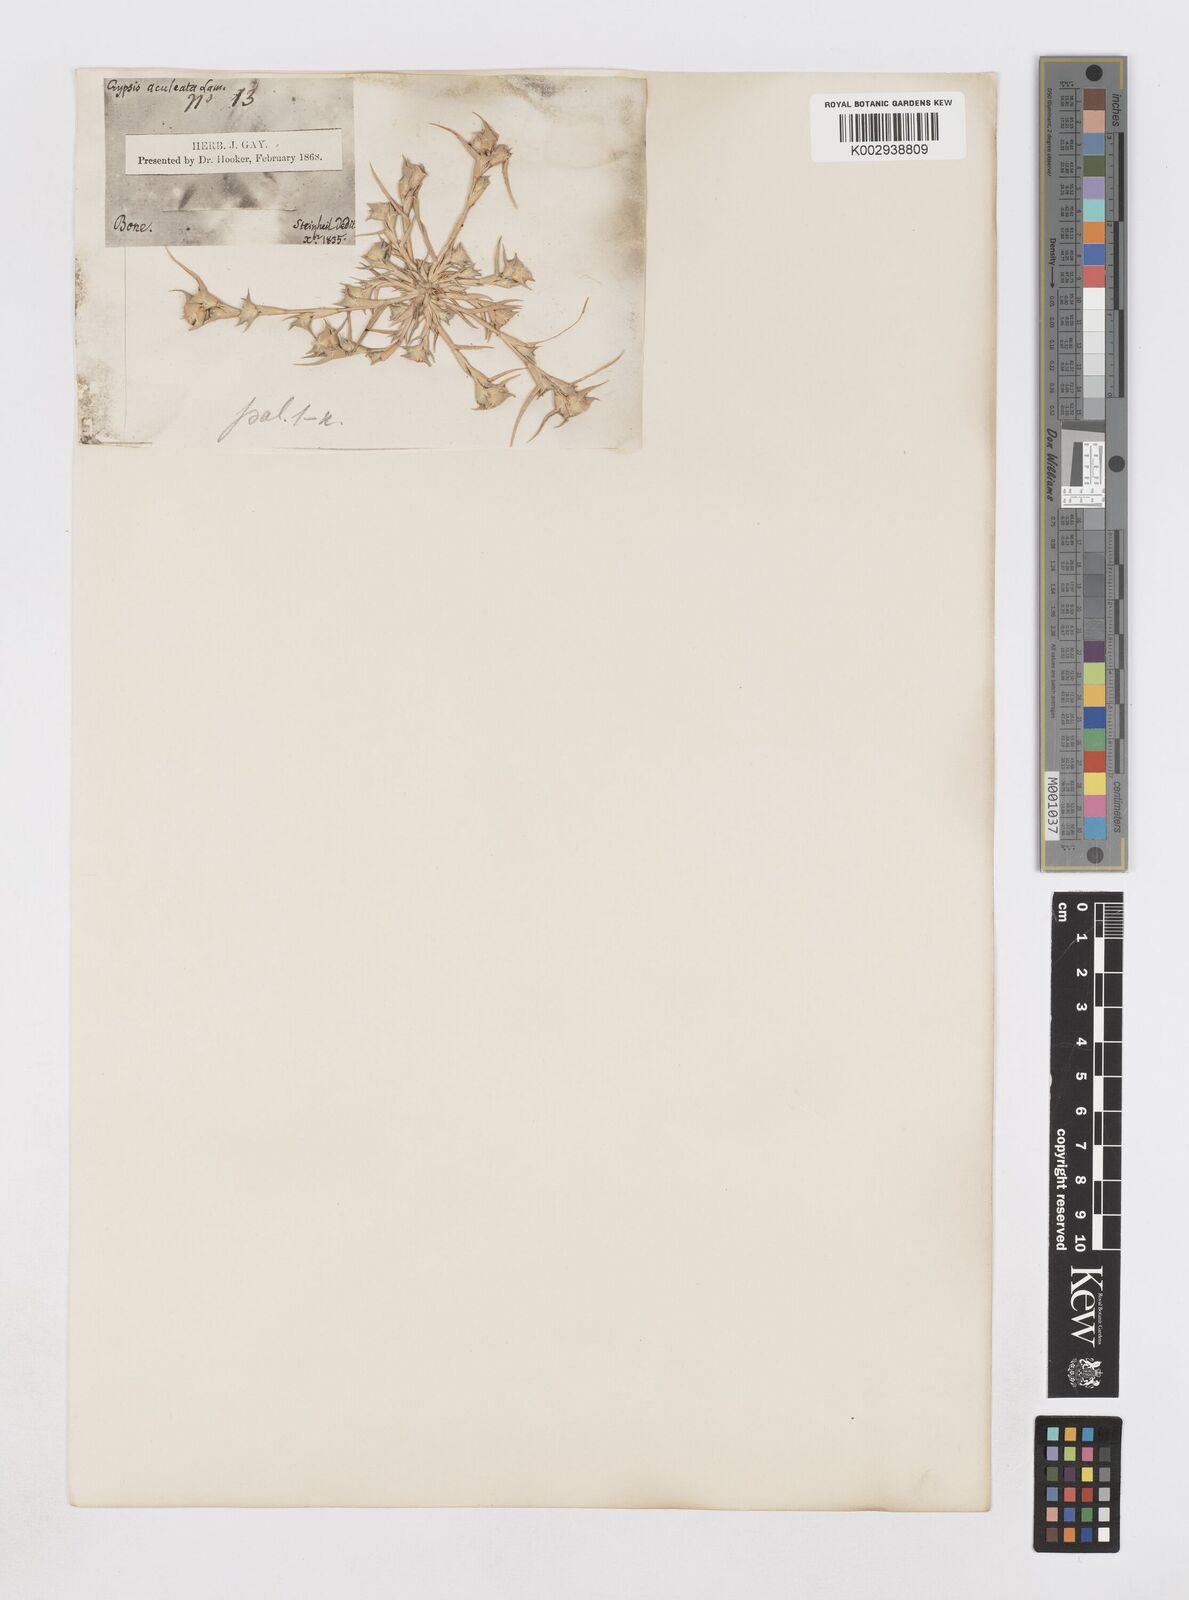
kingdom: Plantae
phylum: Tracheophyta
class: Liliopsida
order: Poales
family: Poaceae
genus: Sporobolus
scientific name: Sporobolus aculeatus
